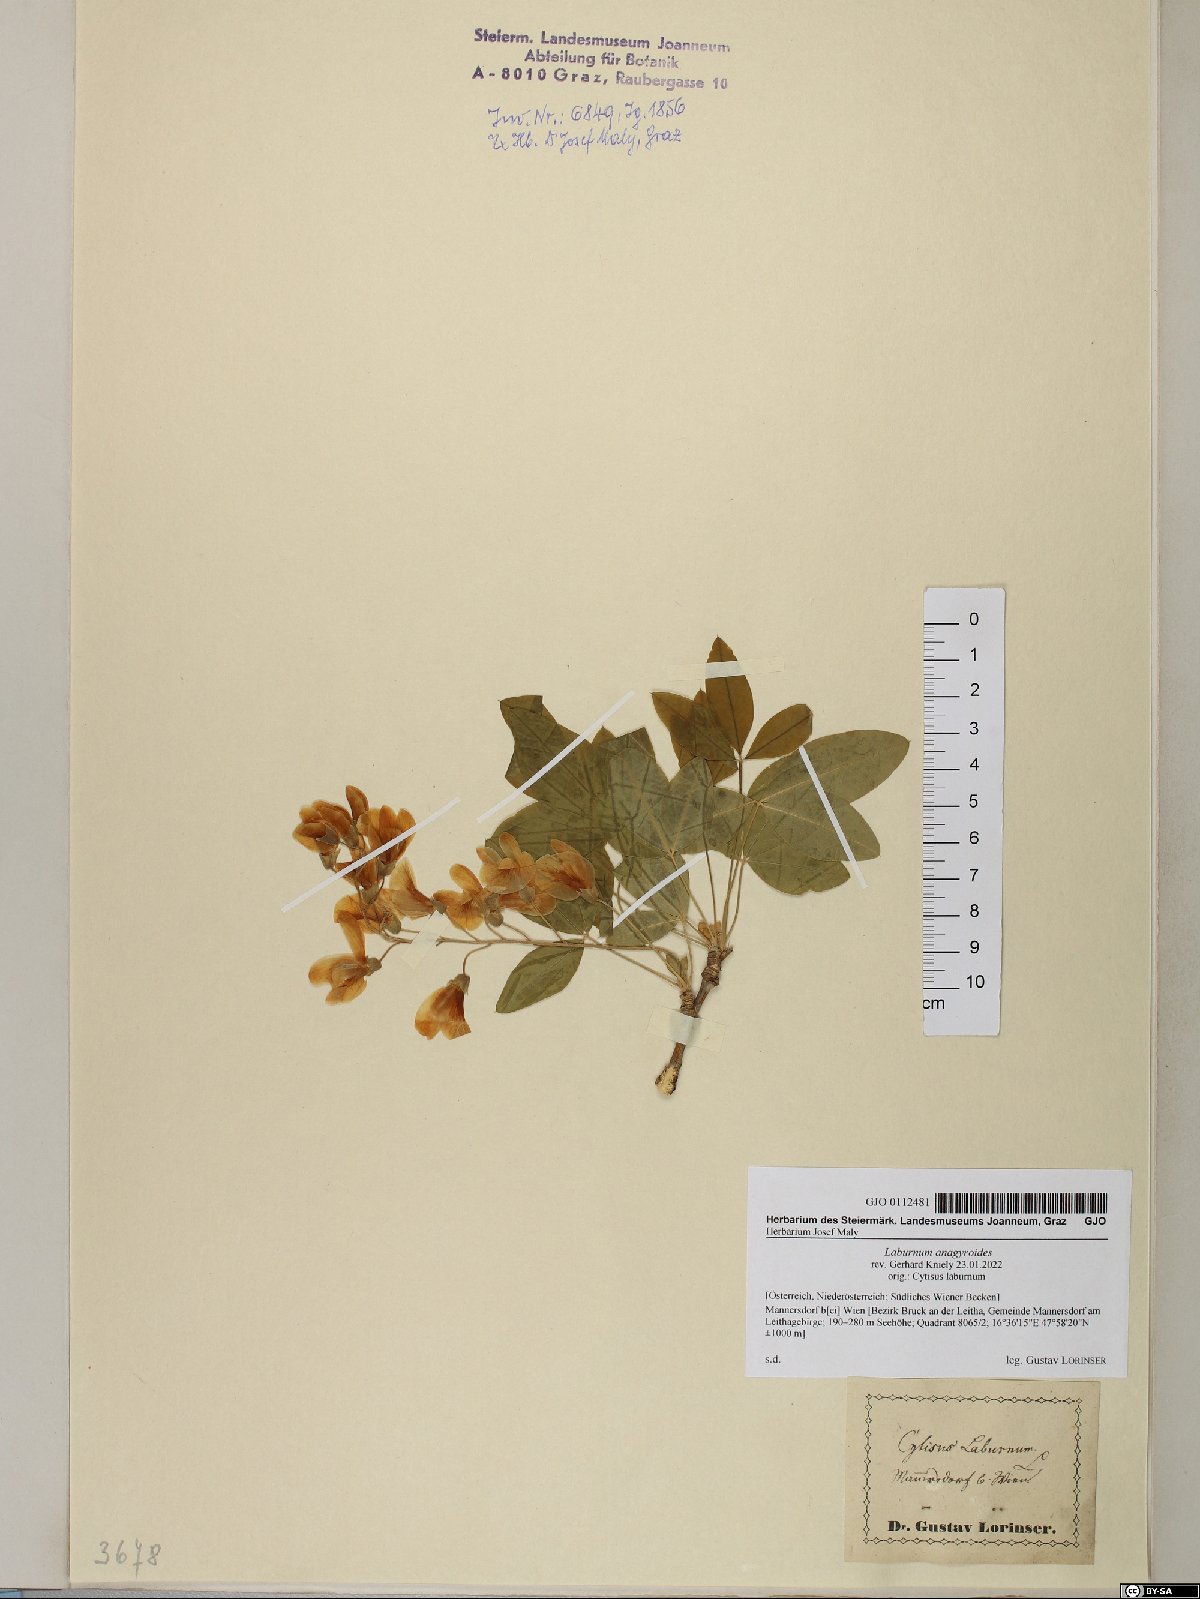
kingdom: Plantae
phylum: Tracheophyta
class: Magnoliopsida
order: Fabales
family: Fabaceae
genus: Laburnum
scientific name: Laburnum anagyroides
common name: Laburnum
